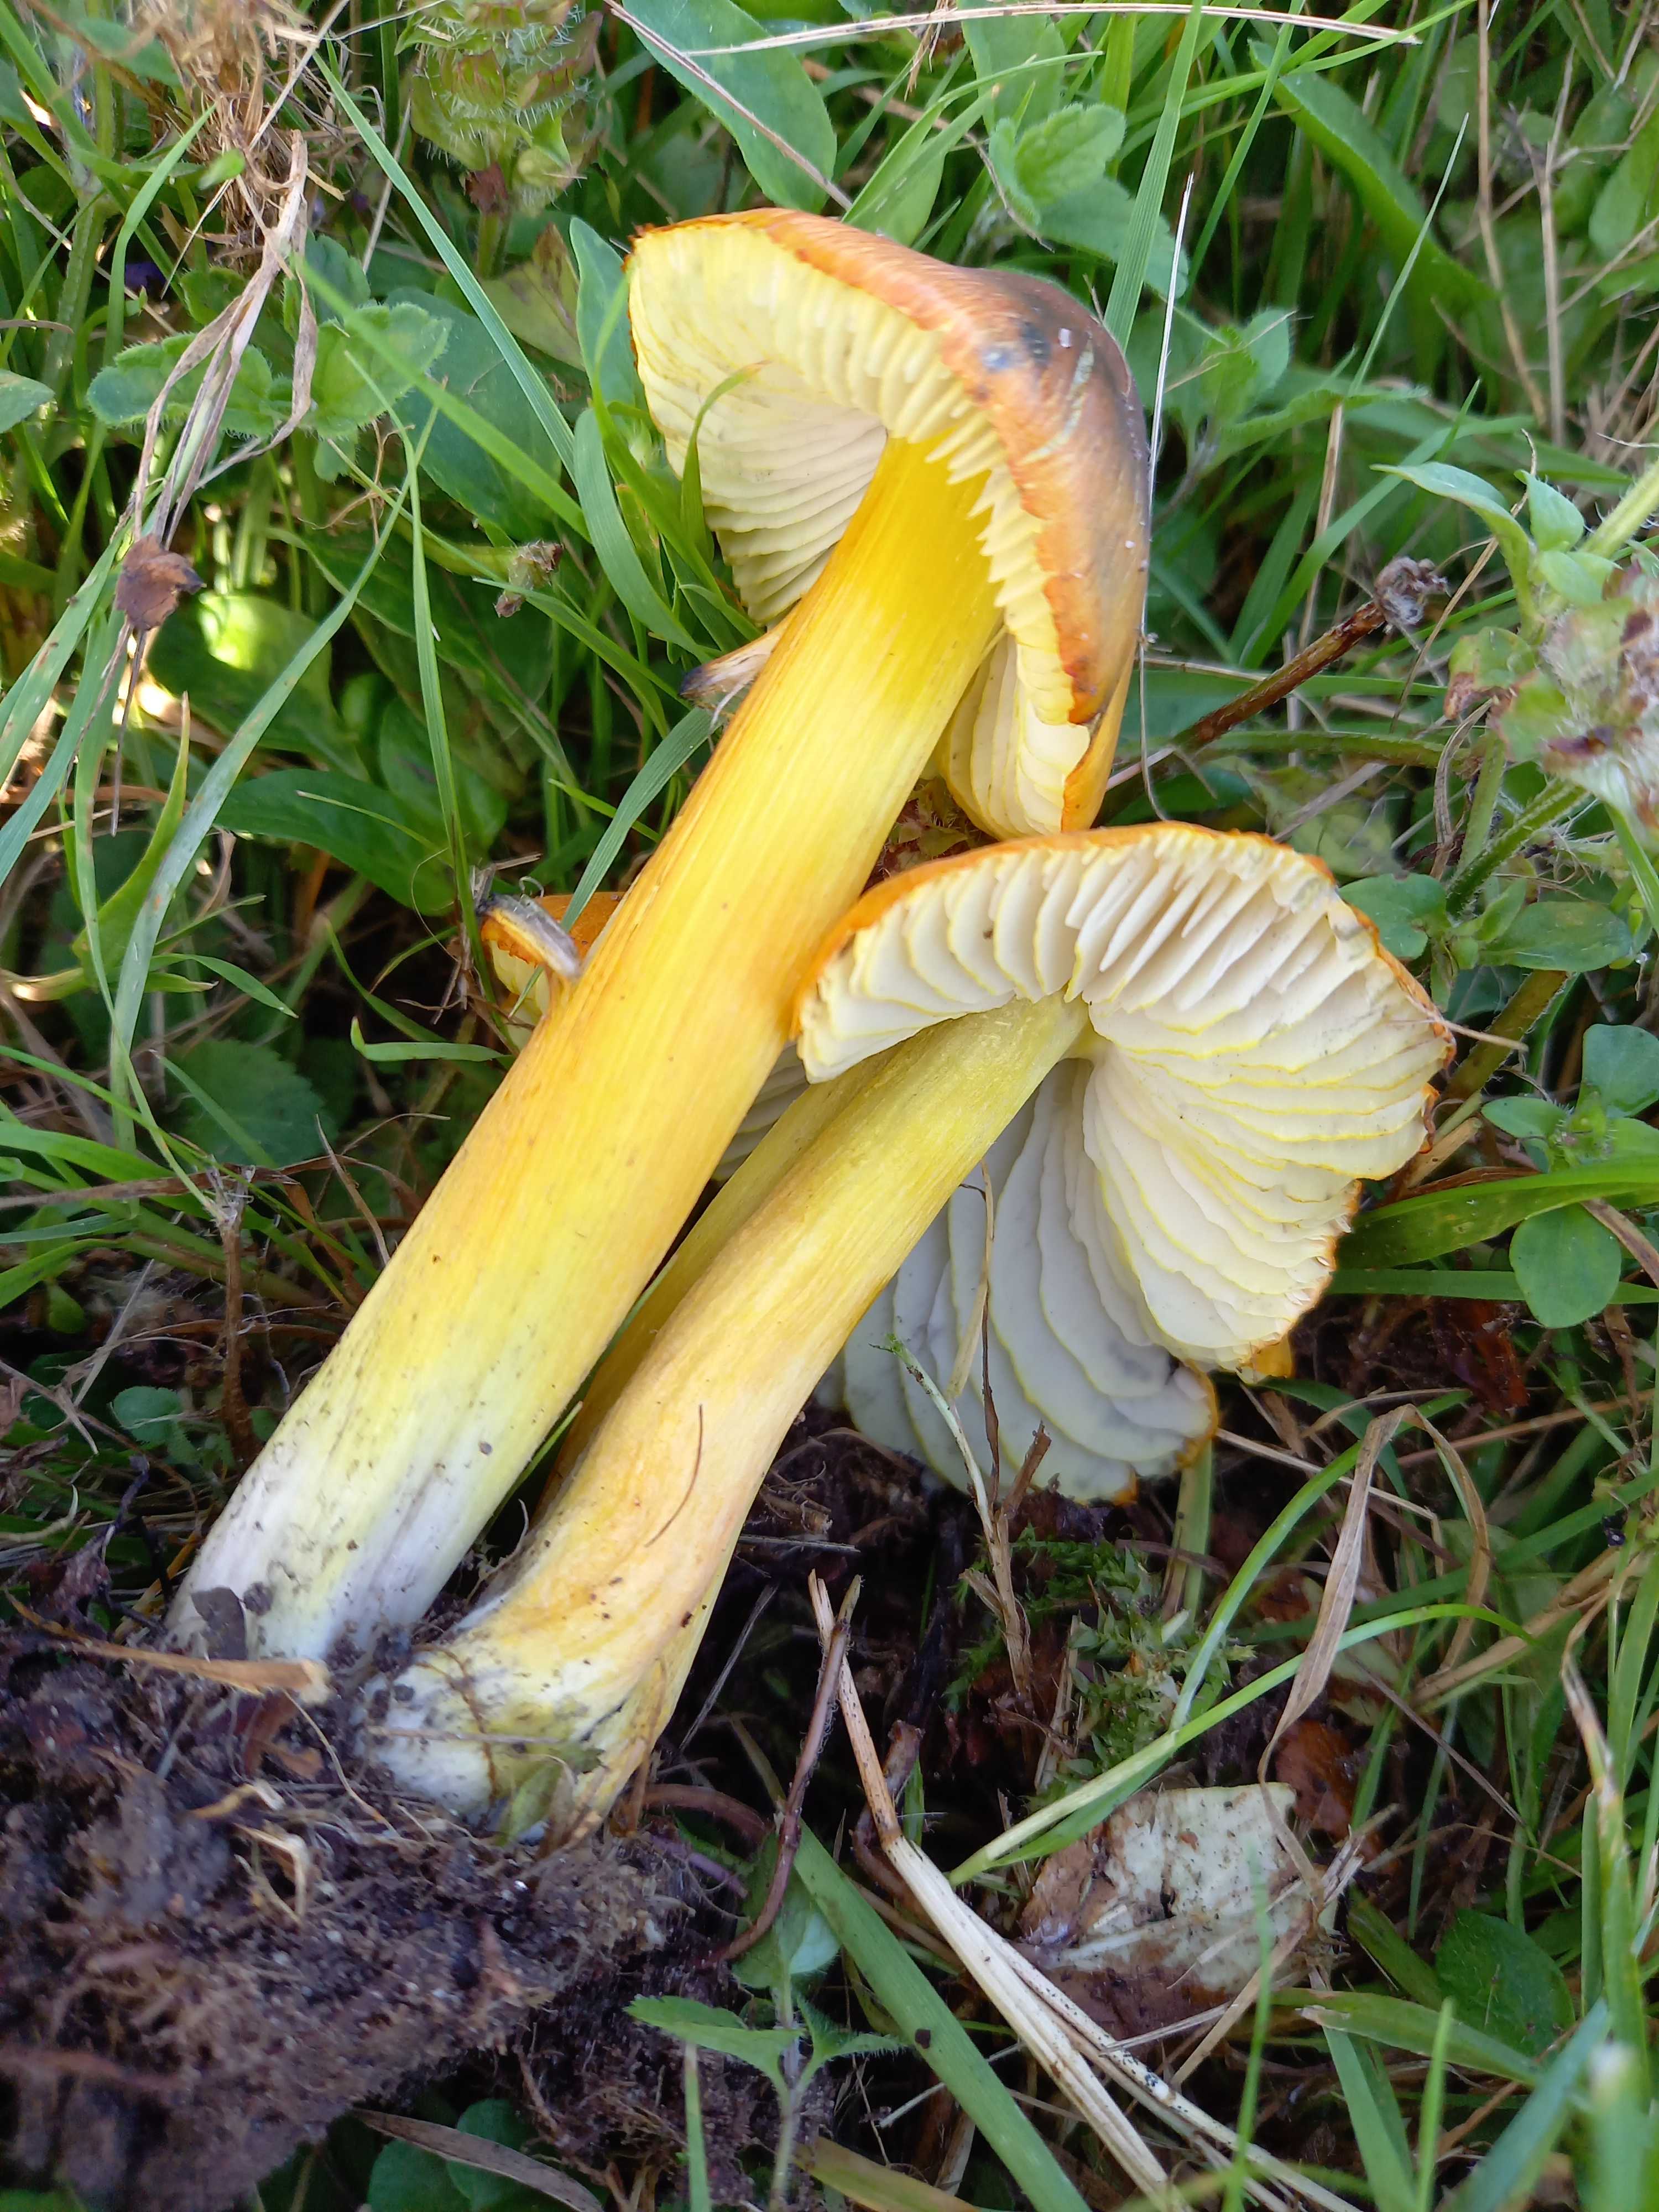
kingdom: Fungi
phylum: Basidiomycota
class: Agaricomycetes
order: Agaricales
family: Hygrophoraceae
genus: Hygrocybe
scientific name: Hygrocybe conica
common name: kegle-vokshat
